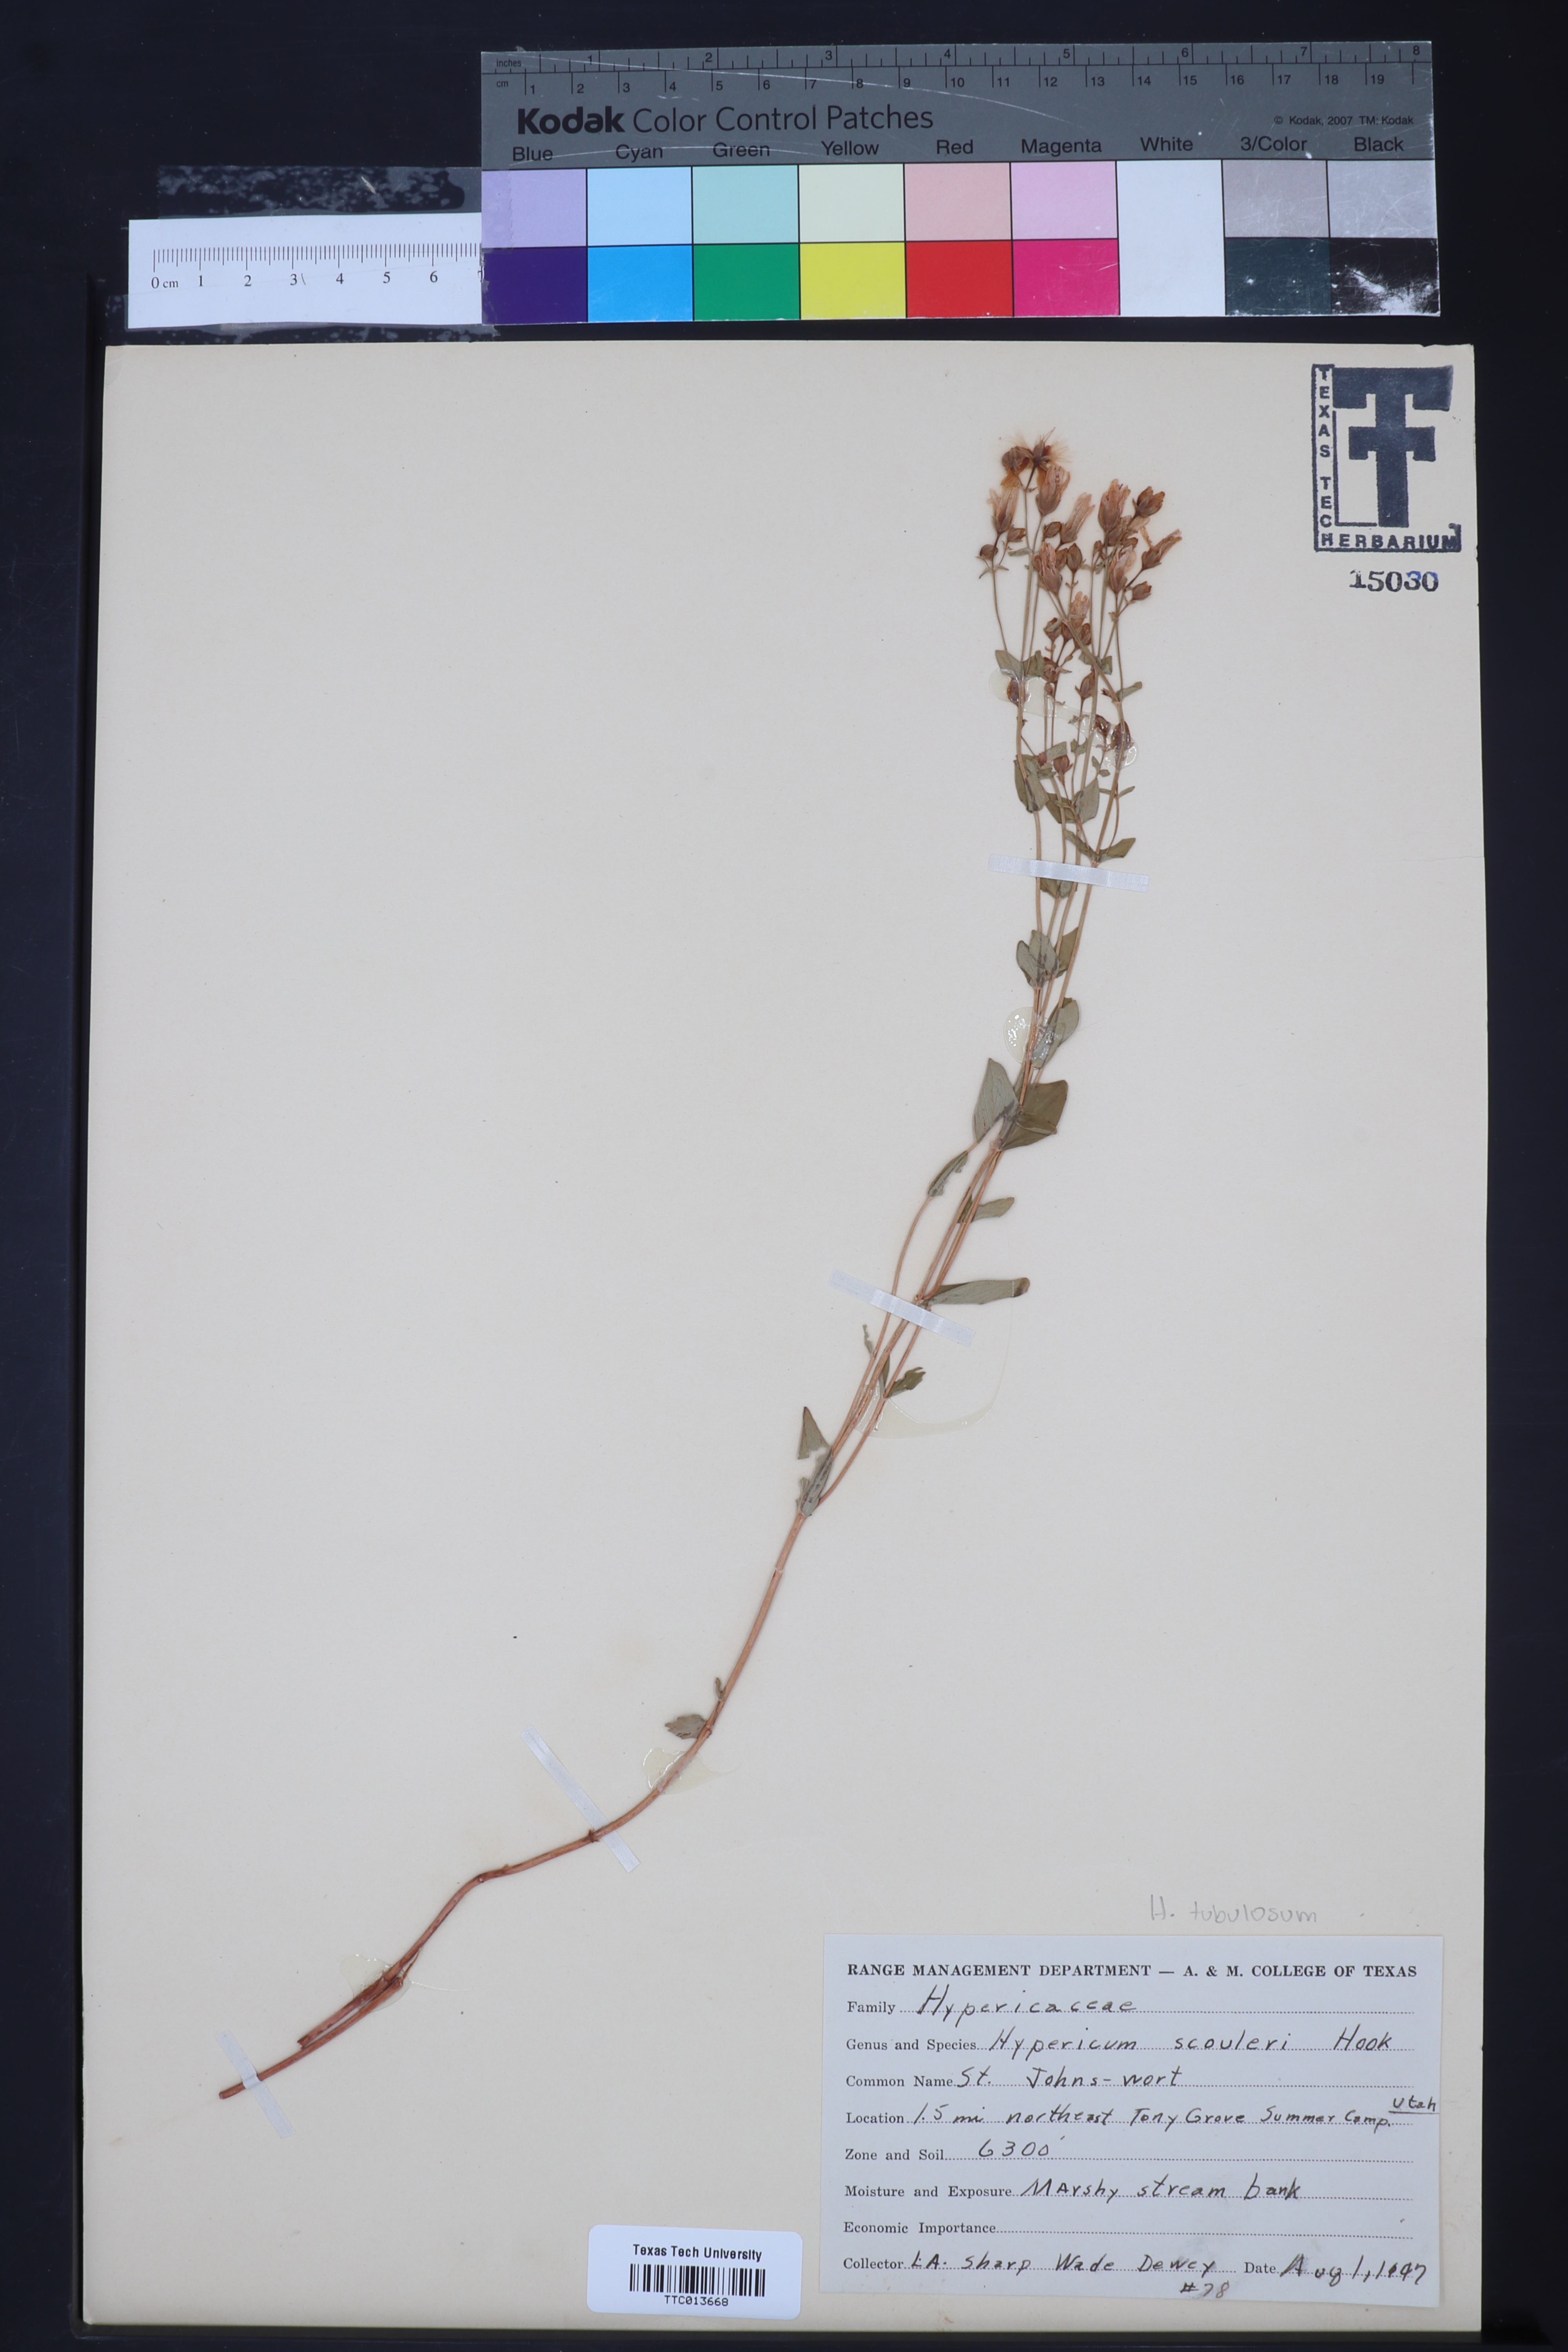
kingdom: Plantae
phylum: Tracheophyta
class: Magnoliopsida
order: Malpighiales
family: Hypericaceae
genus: Hypericum
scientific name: Hypericum scouleri
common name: Scouler's st. john's-wort
